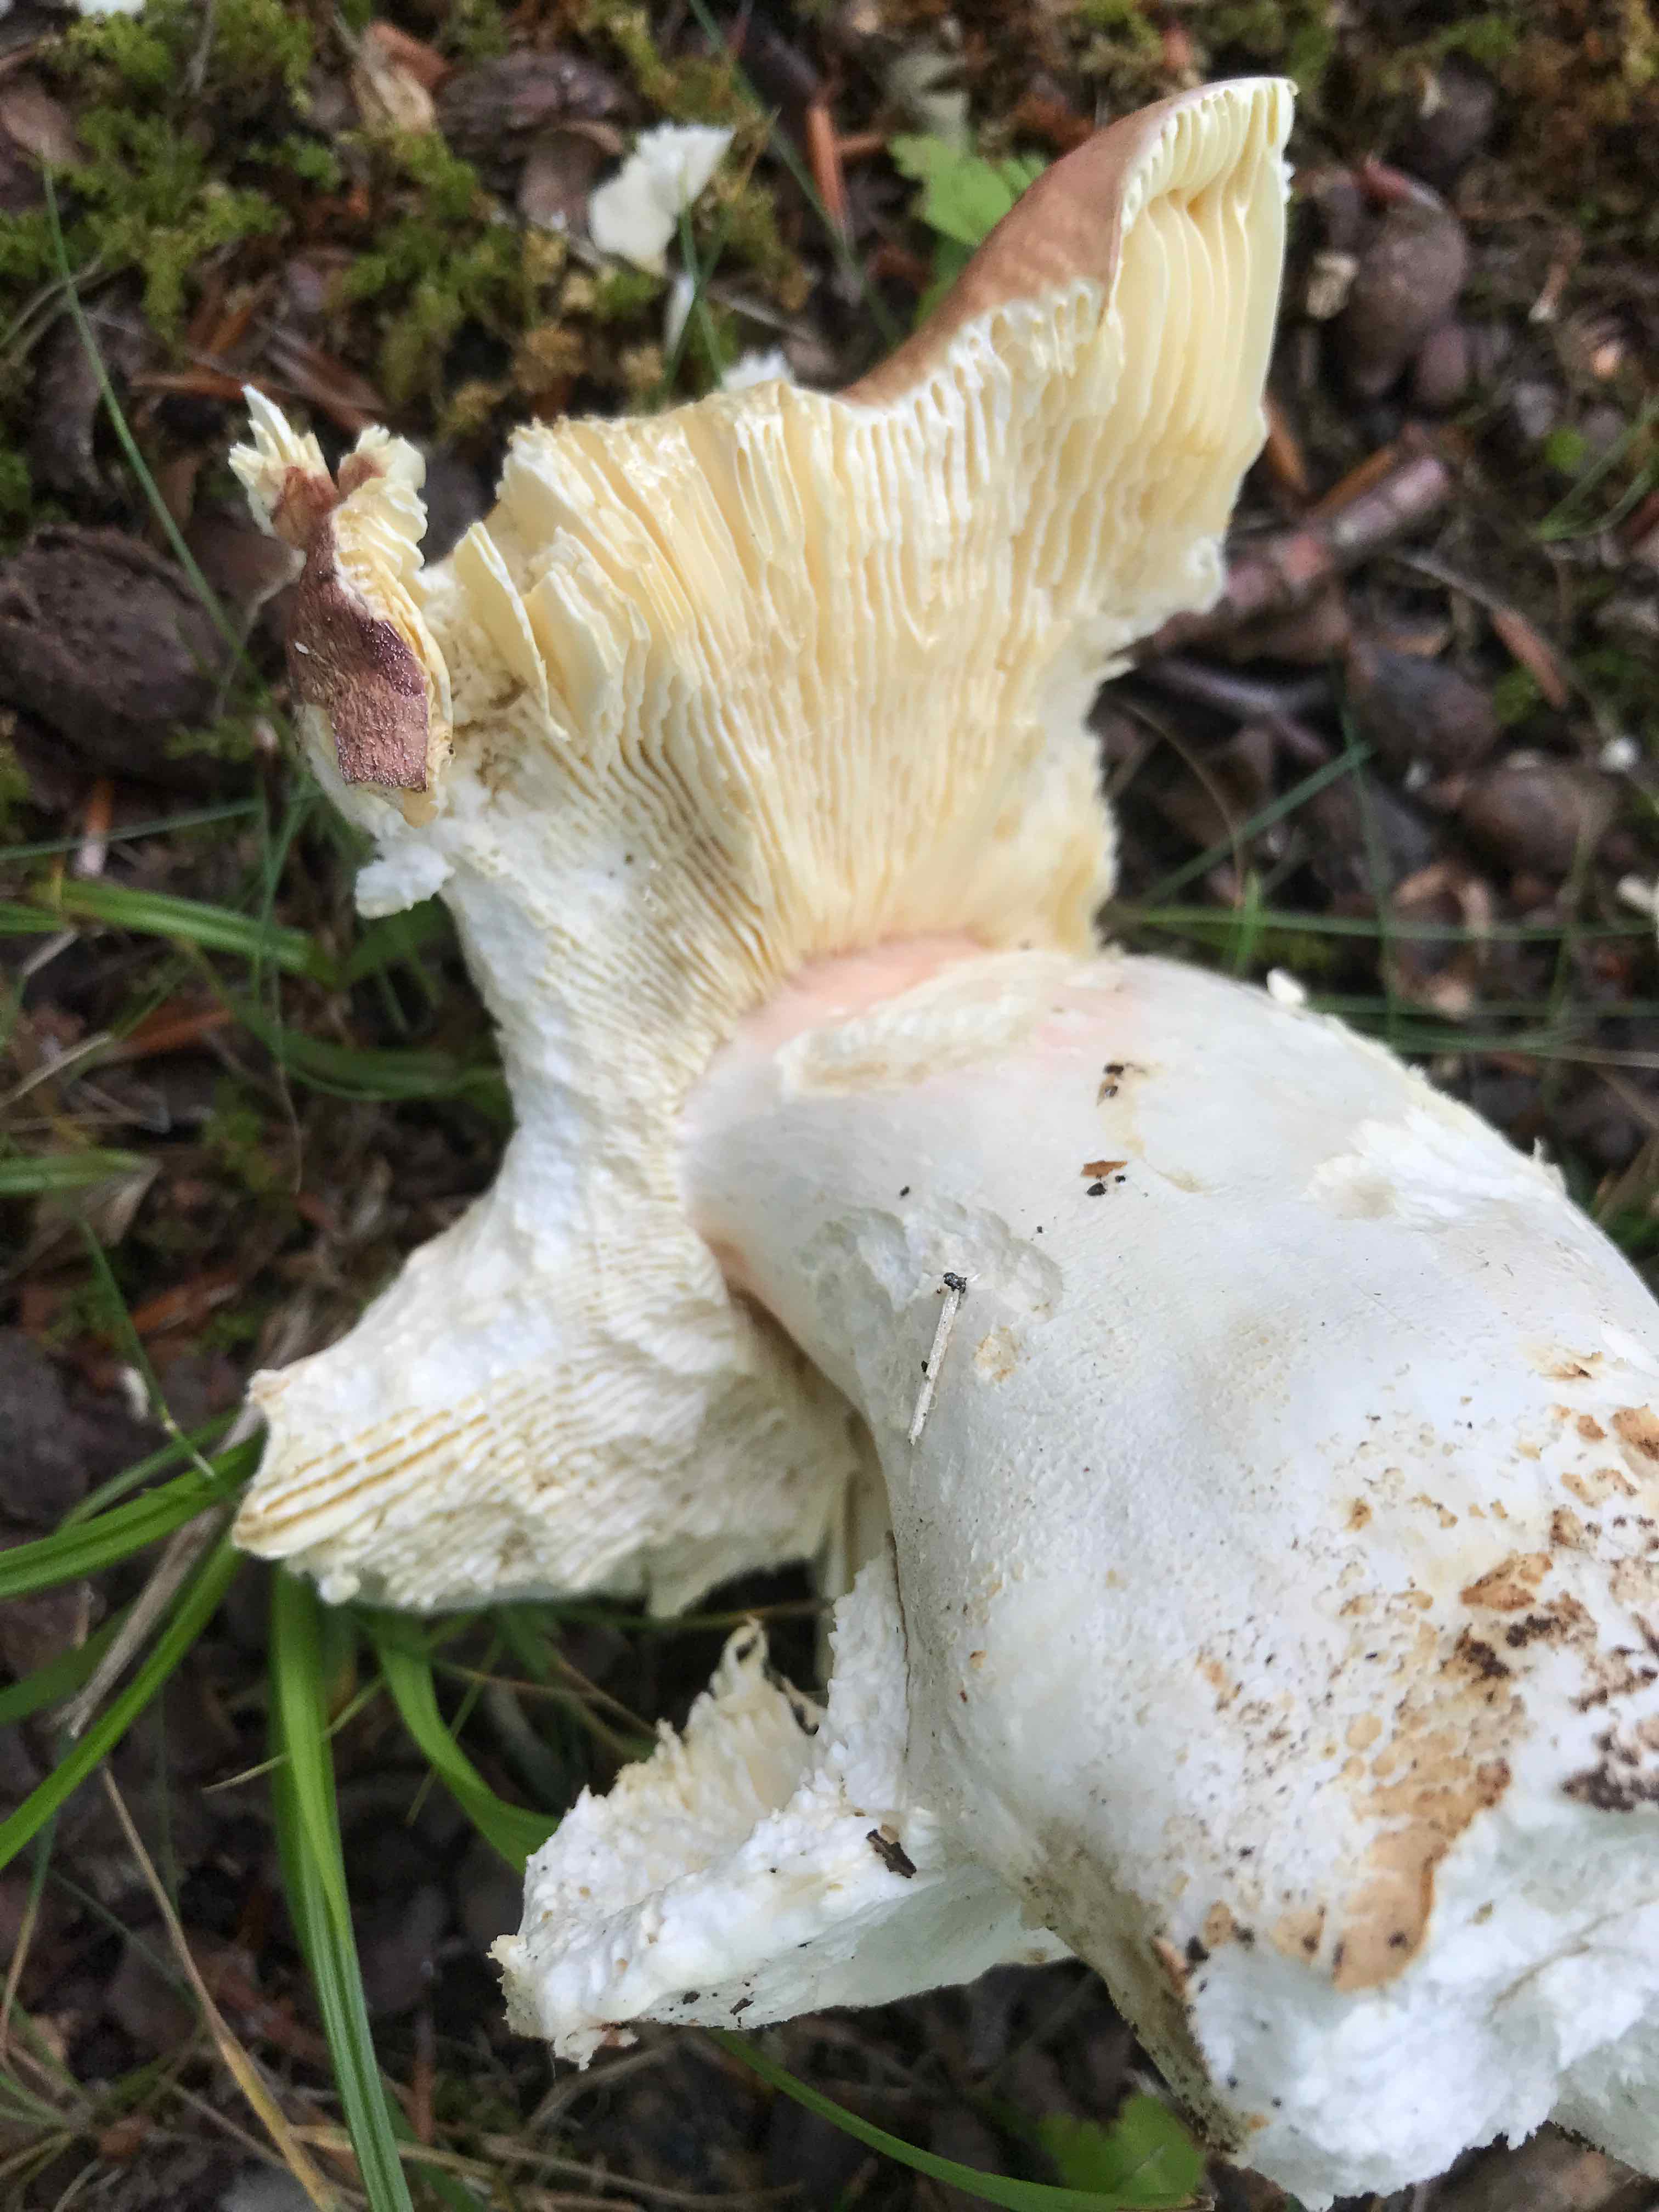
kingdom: Fungi
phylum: Basidiomycota
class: Agaricomycetes
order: Russulales
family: Russulaceae
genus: Russula
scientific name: Russula olivacea
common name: stor skørhat
